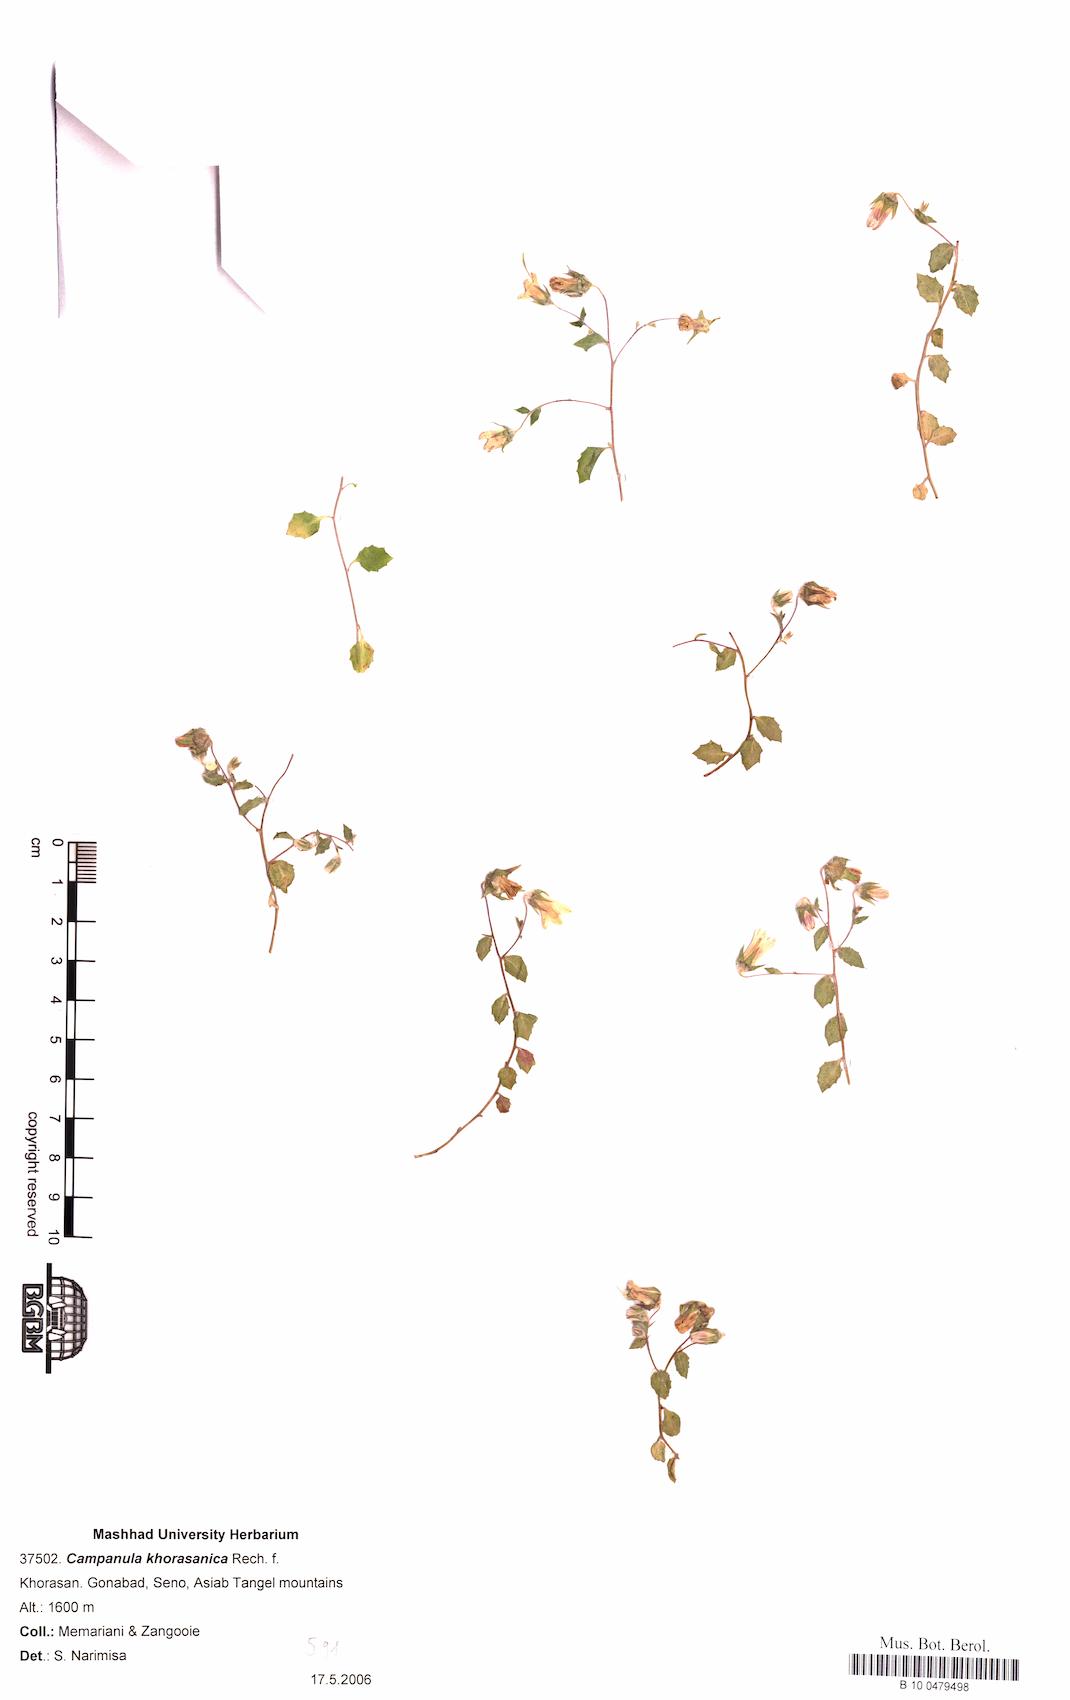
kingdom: Plantae
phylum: Tracheophyta
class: Magnoliopsida
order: Asterales
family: Campanulaceae
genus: Campanula
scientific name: Campanula khorasanica
